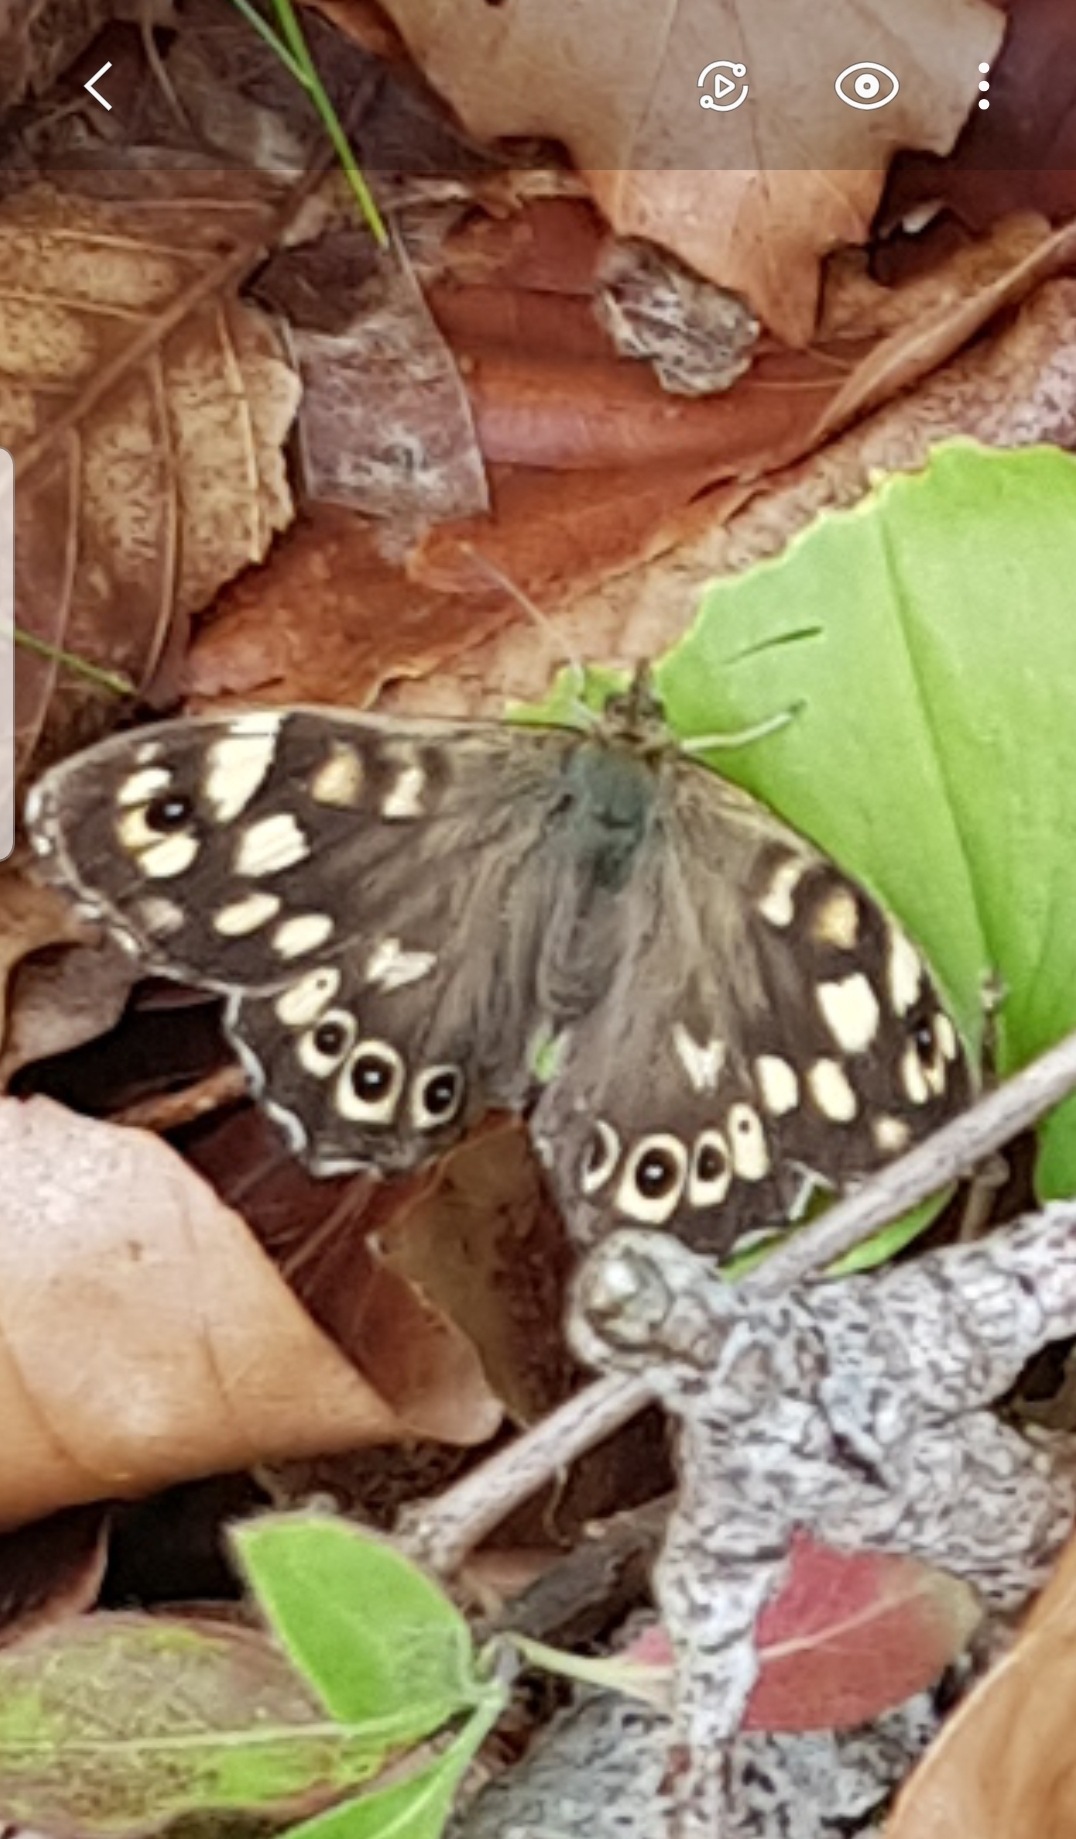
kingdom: Animalia
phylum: Arthropoda
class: Insecta
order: Lepidoptera
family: Nymphalidae
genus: Pararge
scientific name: Pararge aegeria
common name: Skovrandøje
